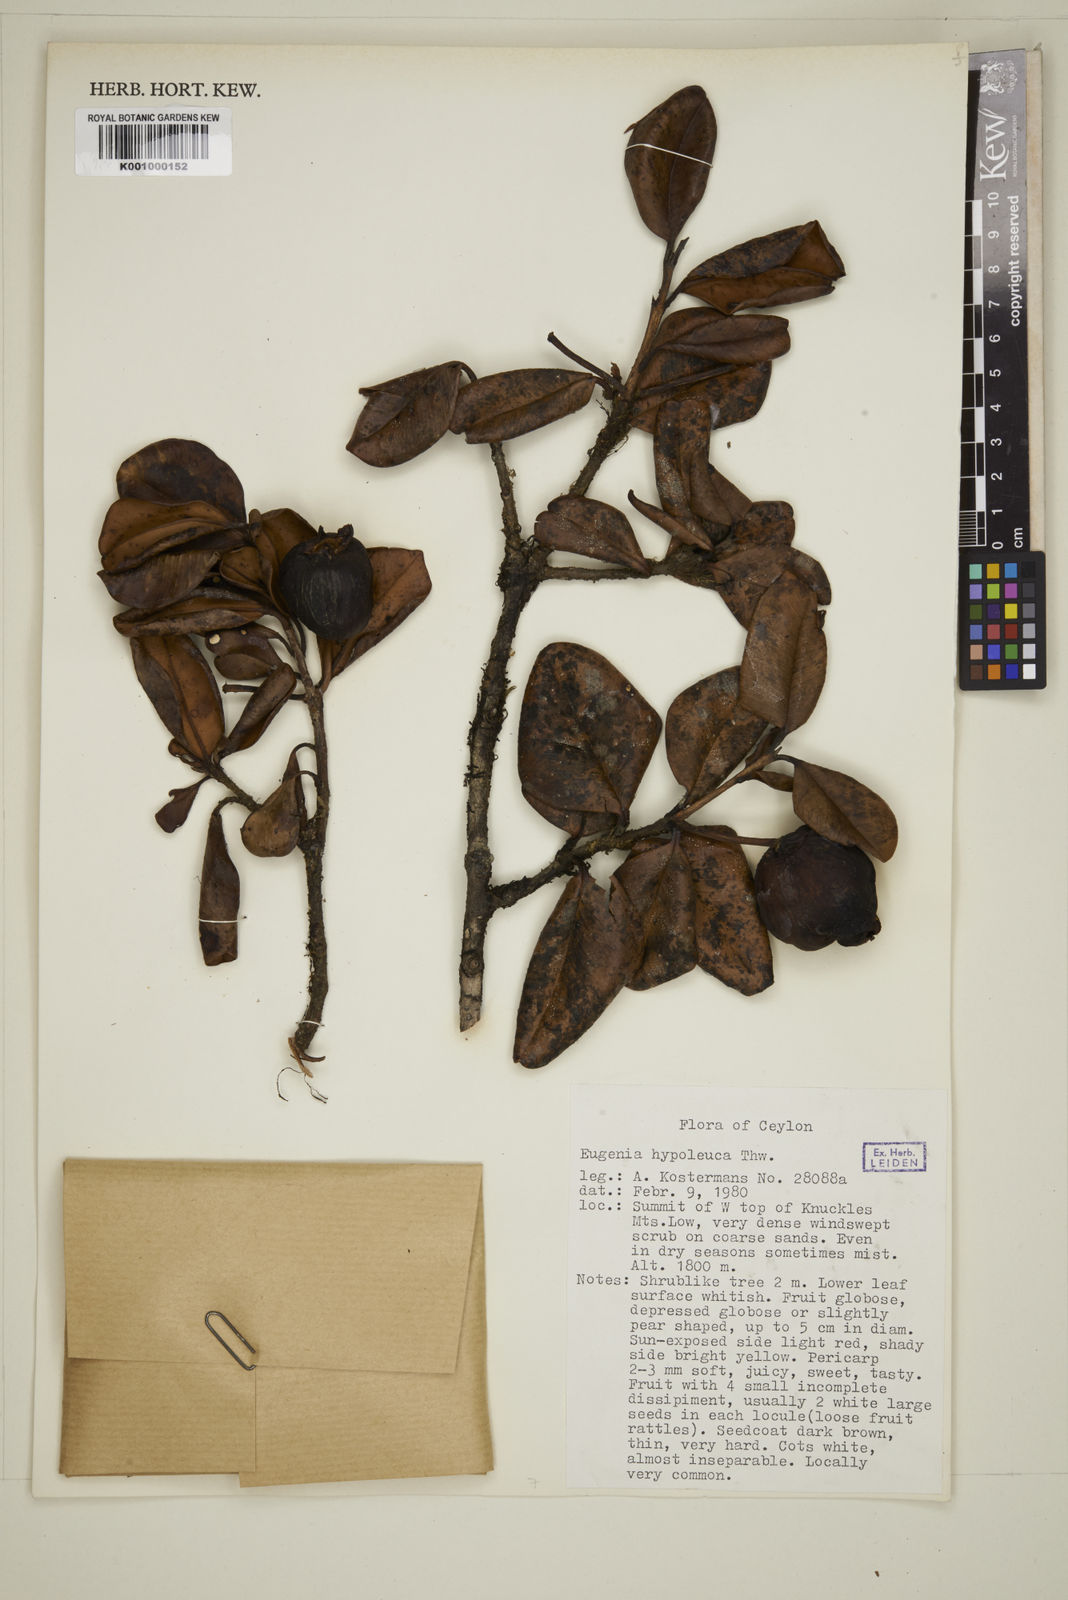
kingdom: Plantae
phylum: Tracheophyta
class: Magnoliopsida
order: Myrtales
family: Myrtaceae
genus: Eugenia
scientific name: Eugenia codyensis
